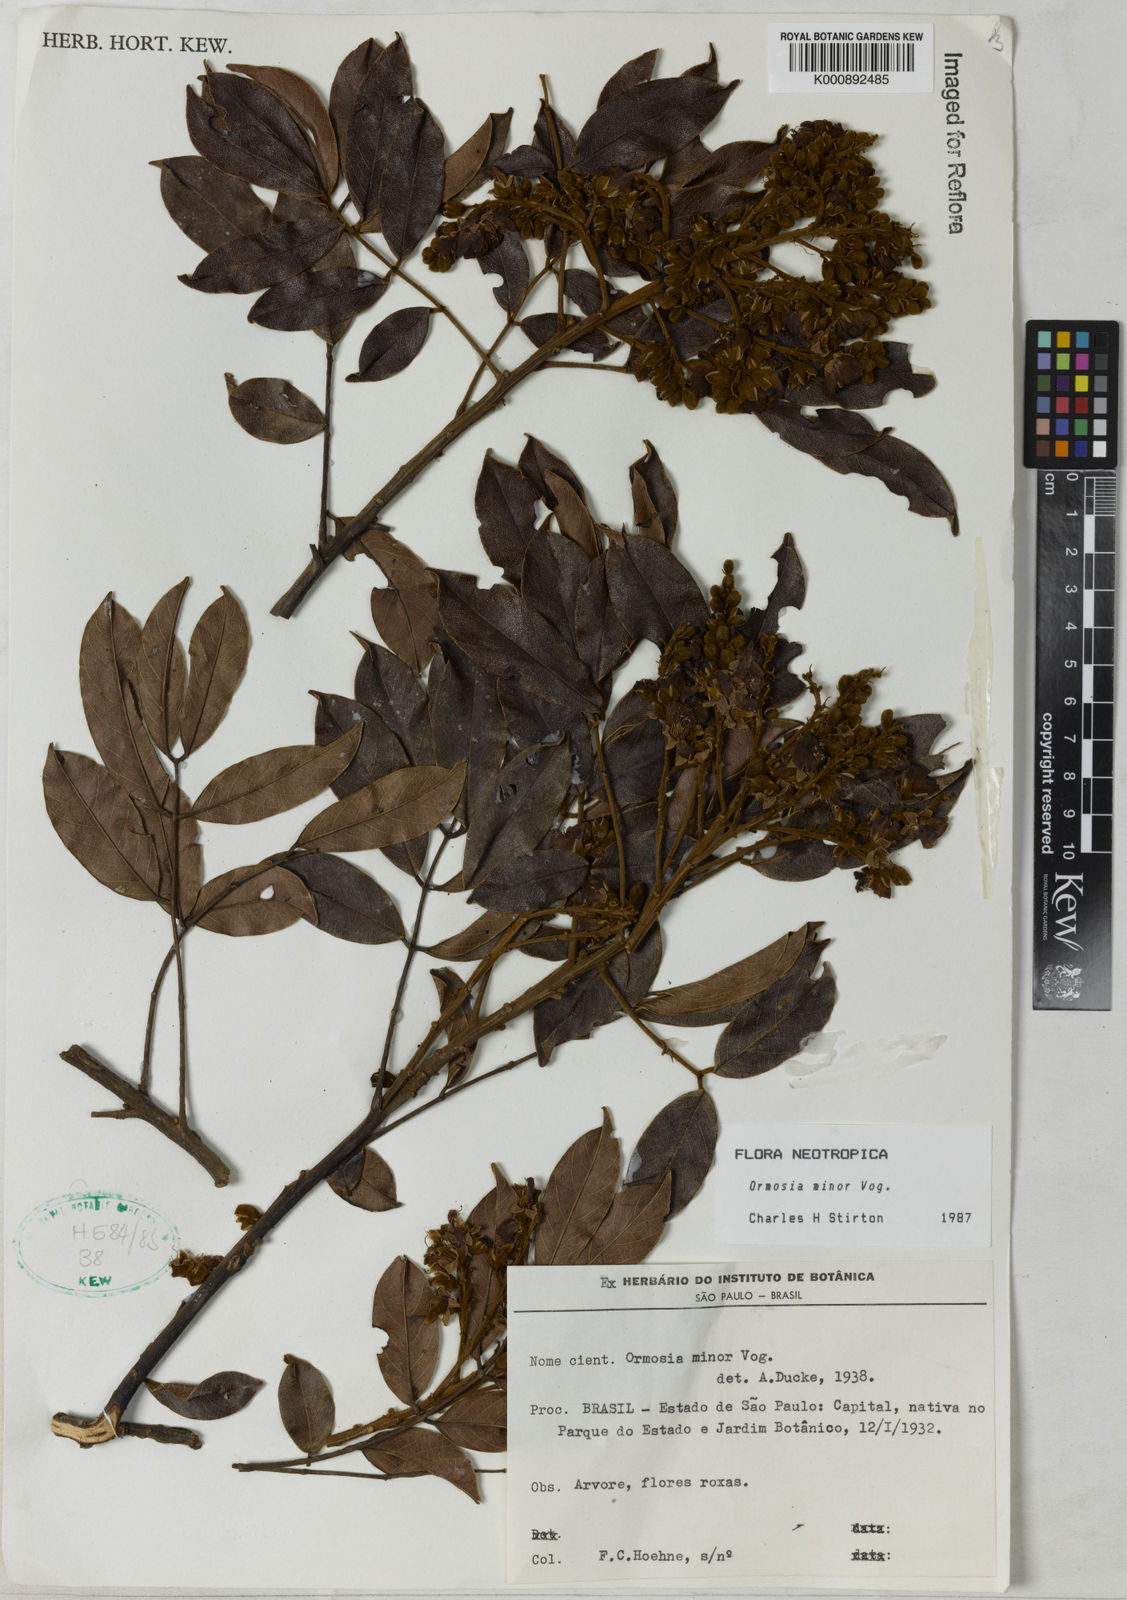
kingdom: Plantae
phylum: Tracheophyta
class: Magnoliopsida
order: Fabales
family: Fabaceae
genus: Ormosia
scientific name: Ormosia minor
